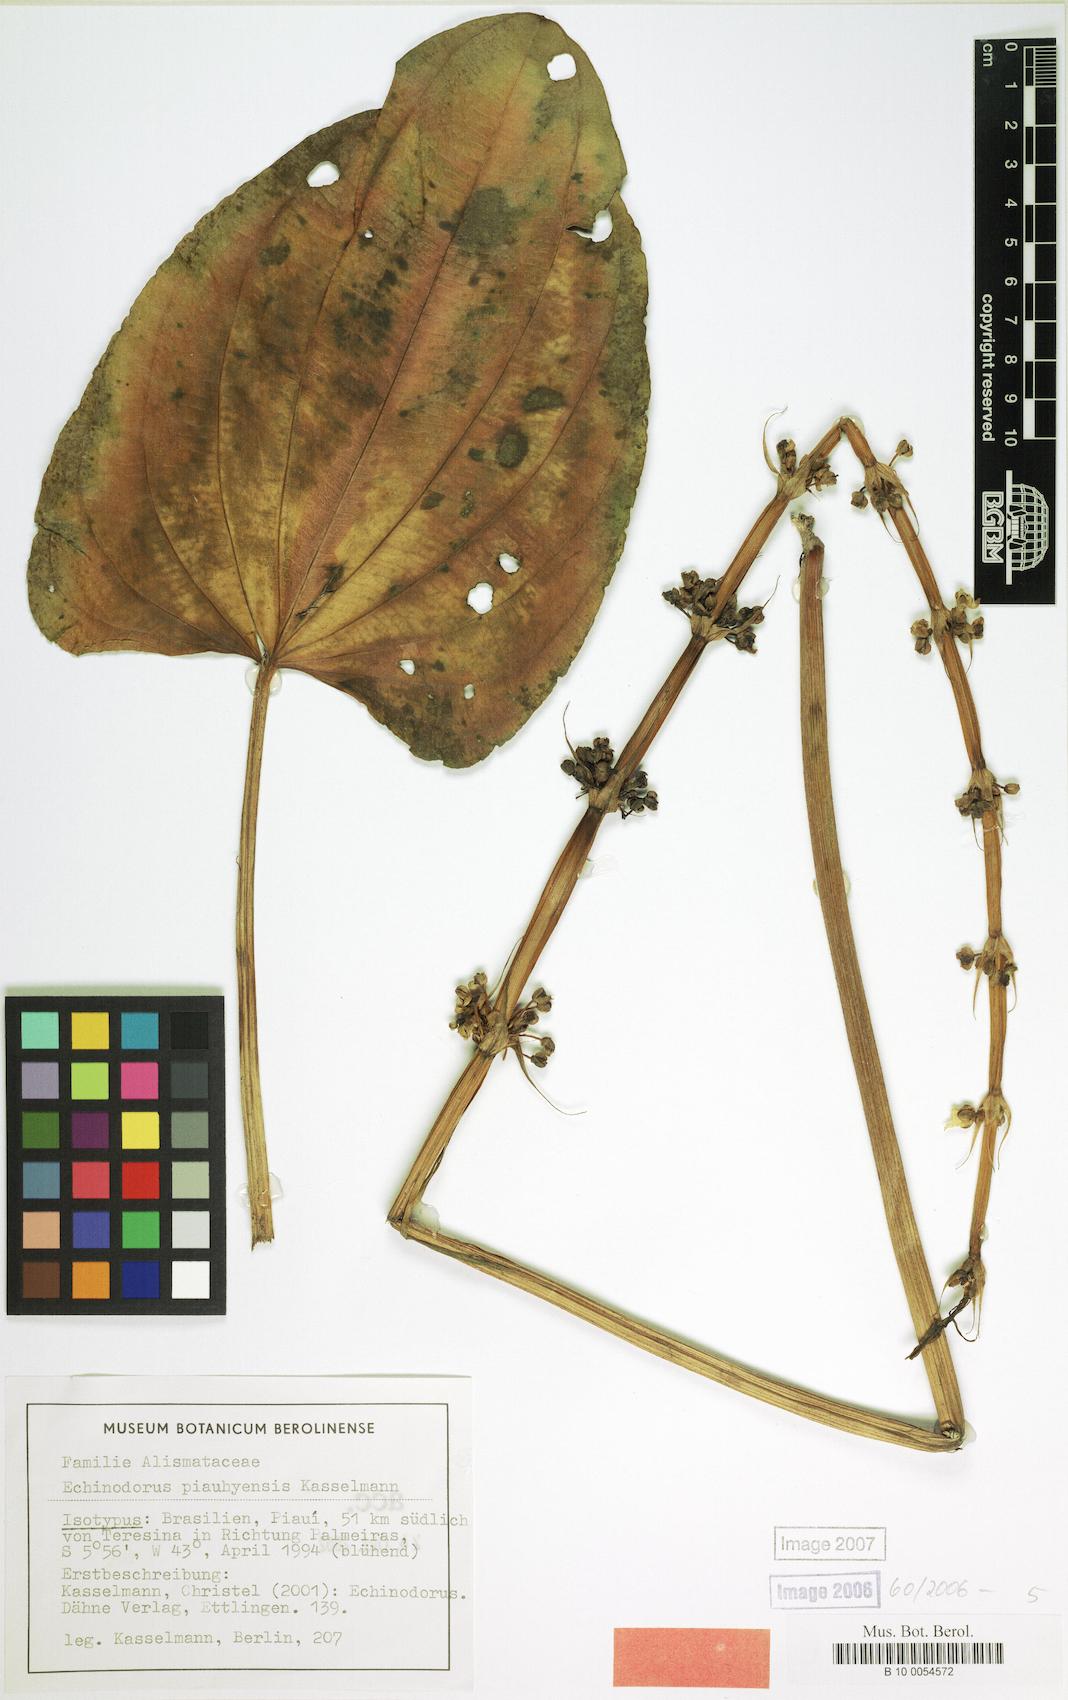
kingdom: Plantae
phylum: Tracheophyta
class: Liliopsida
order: Alismatales
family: Alismataceae
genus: Aquarius
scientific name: Aquarius palifolius
